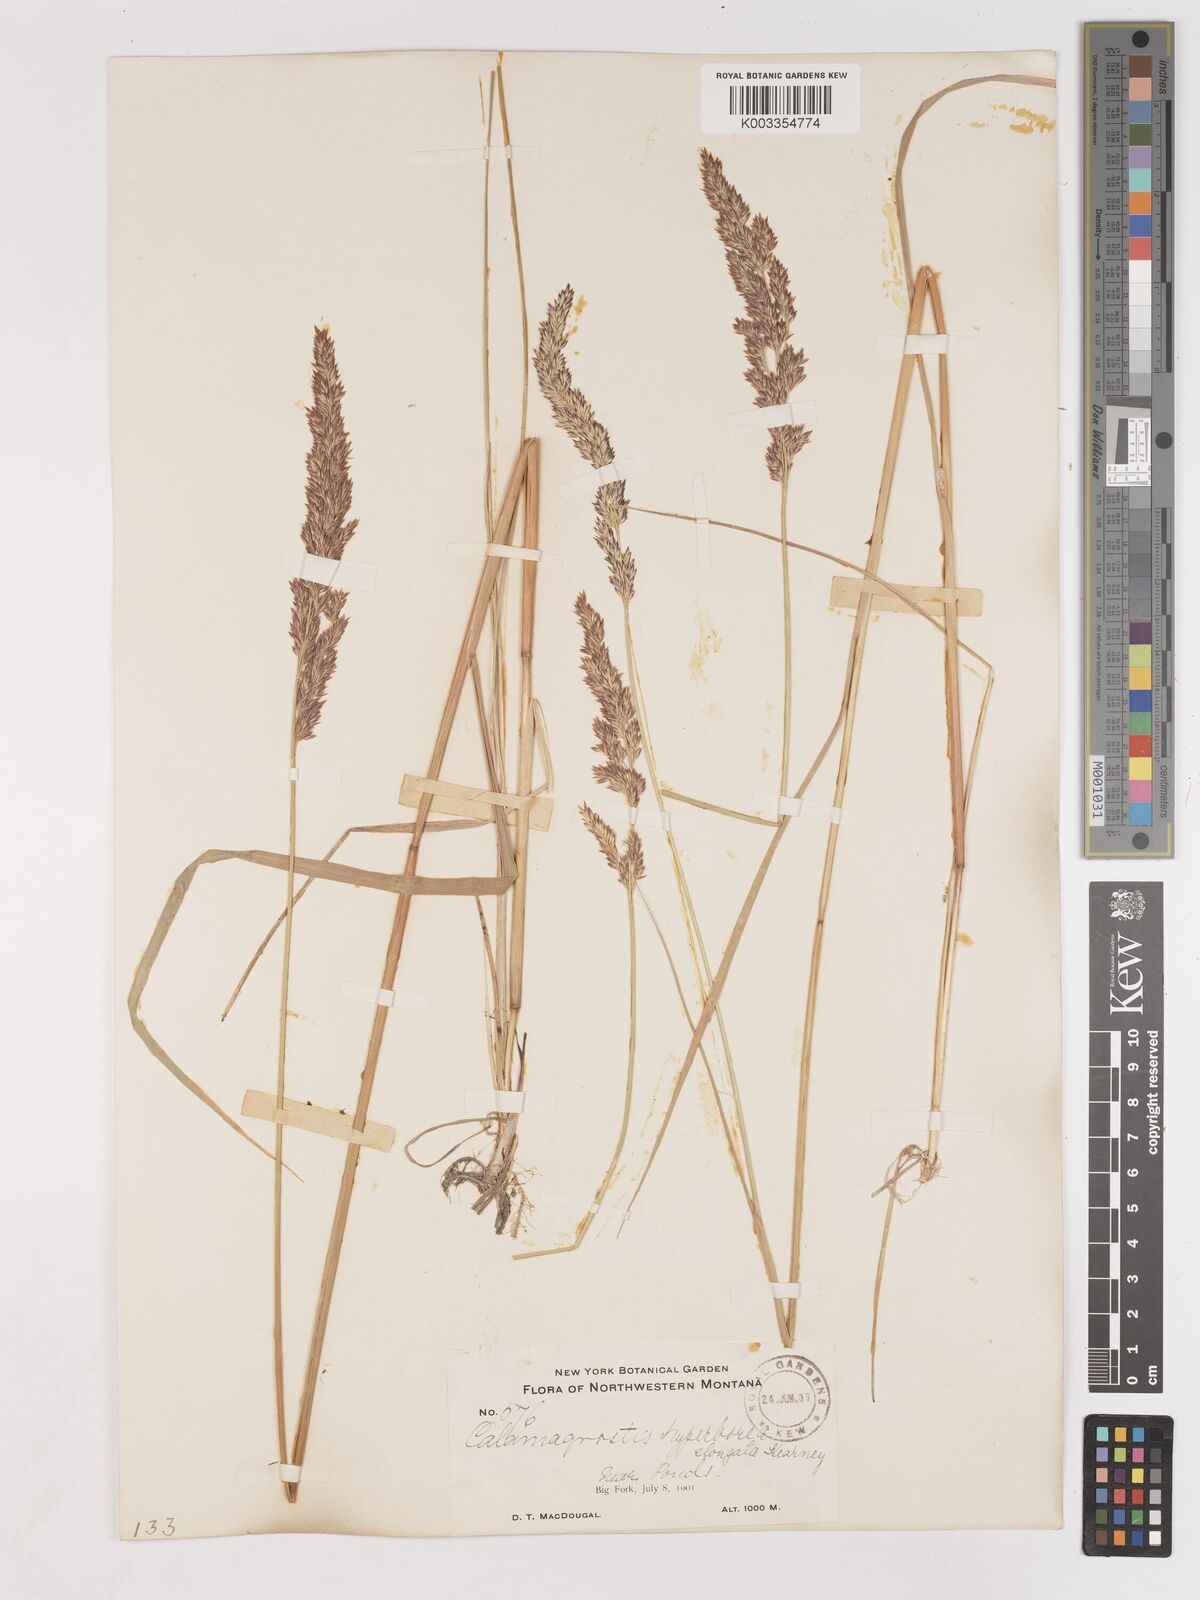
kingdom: Plantae
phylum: Tracheophyta
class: Liliopsida
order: Poales
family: Poaceae
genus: Cinnagrostis
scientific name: Cinnagrostis recta
